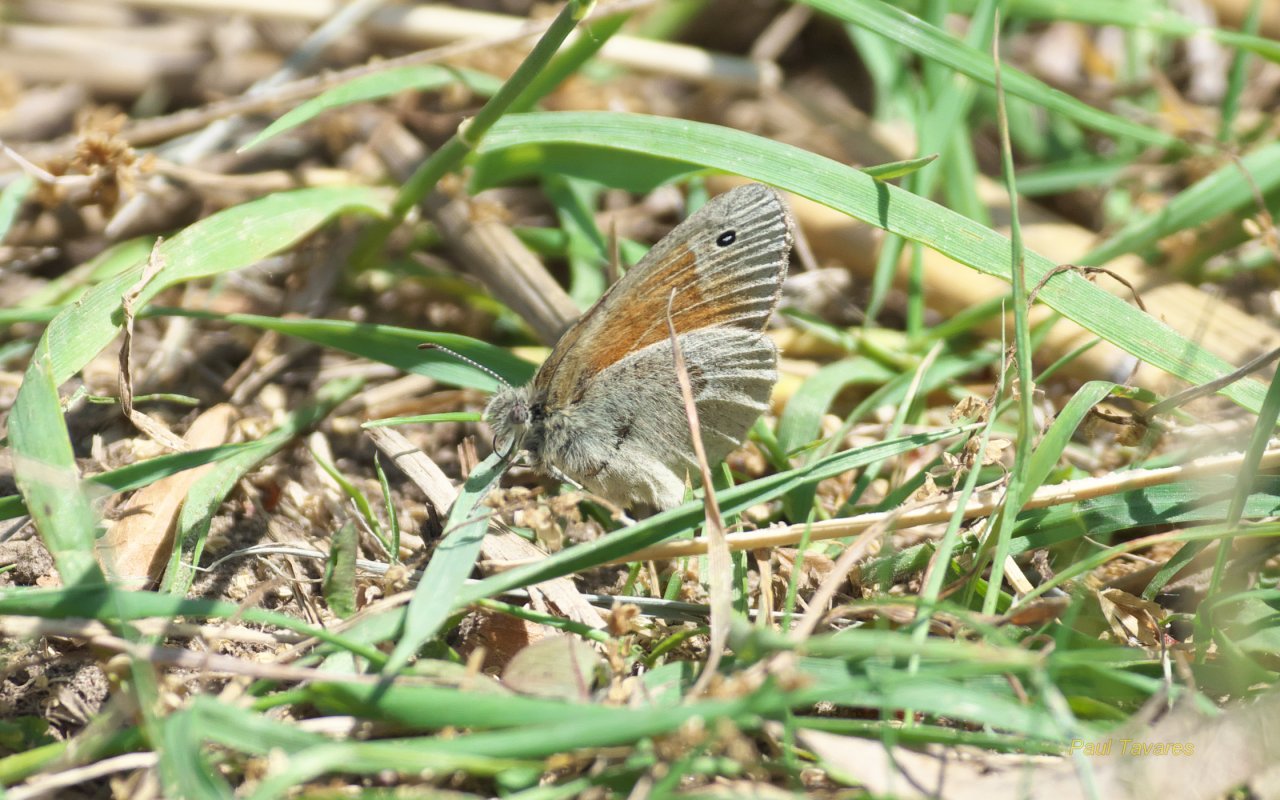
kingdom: Animalia
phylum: Arthropoda
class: Insecta
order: Lepidoptera
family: Nymphalidae
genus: Coenonympha
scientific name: Coenonympha tullia
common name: Large Heath
